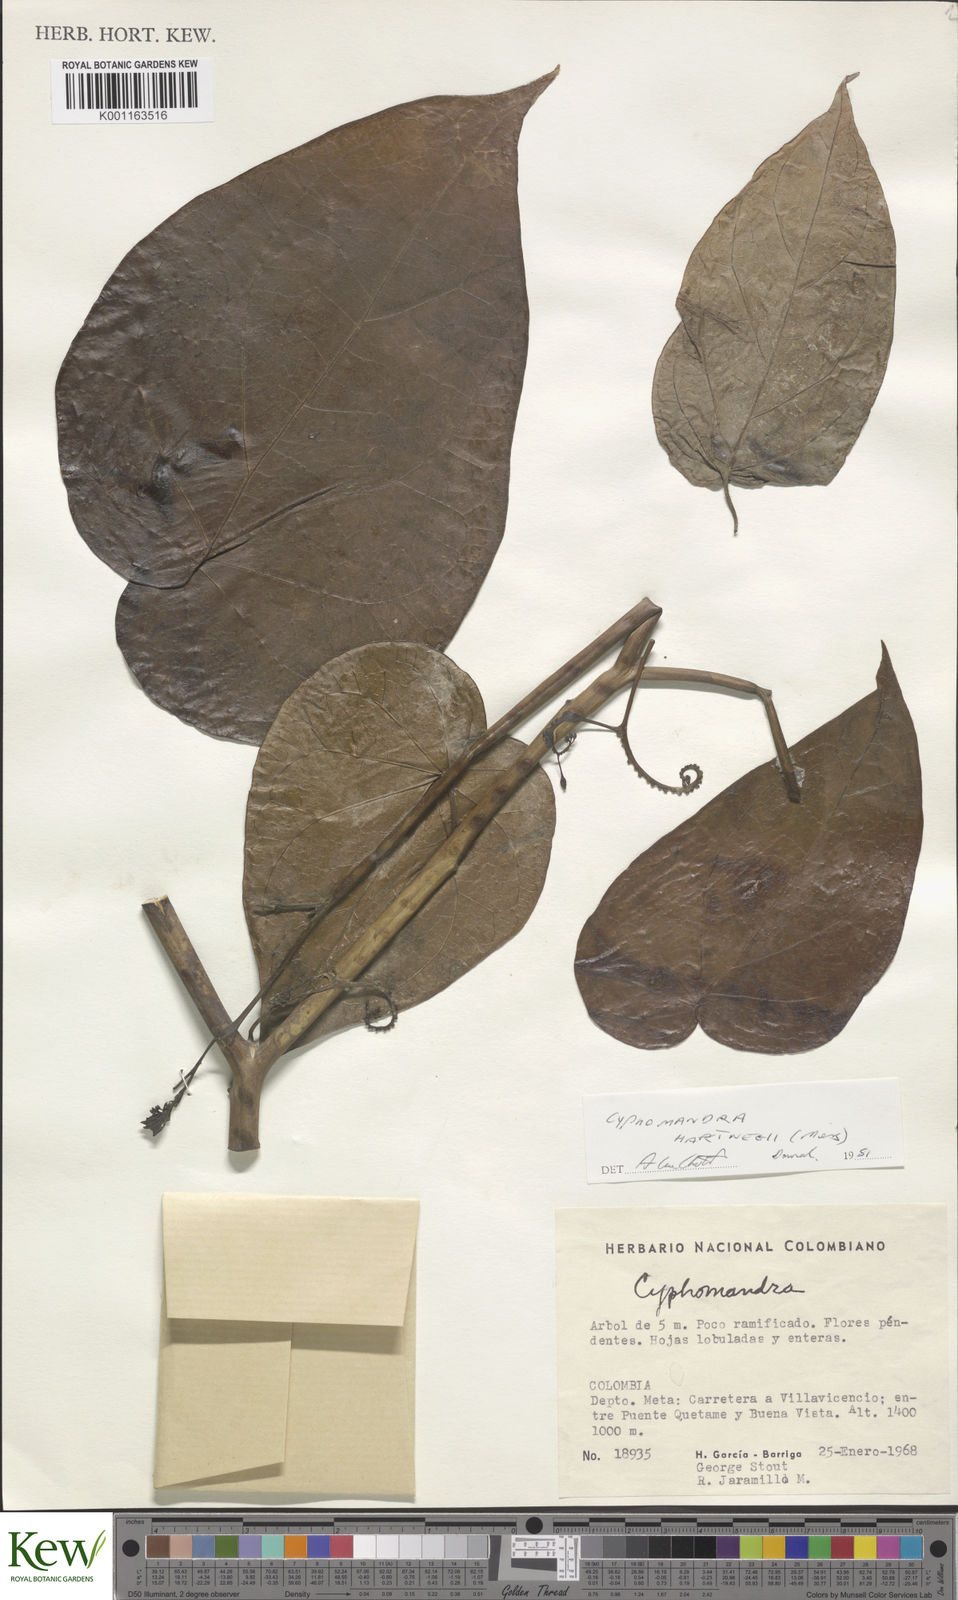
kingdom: Plantae
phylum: Tracheophyta
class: Magnoliopsida
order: Solanales
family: Solanaceae
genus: Solanum
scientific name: Solanum splendens
